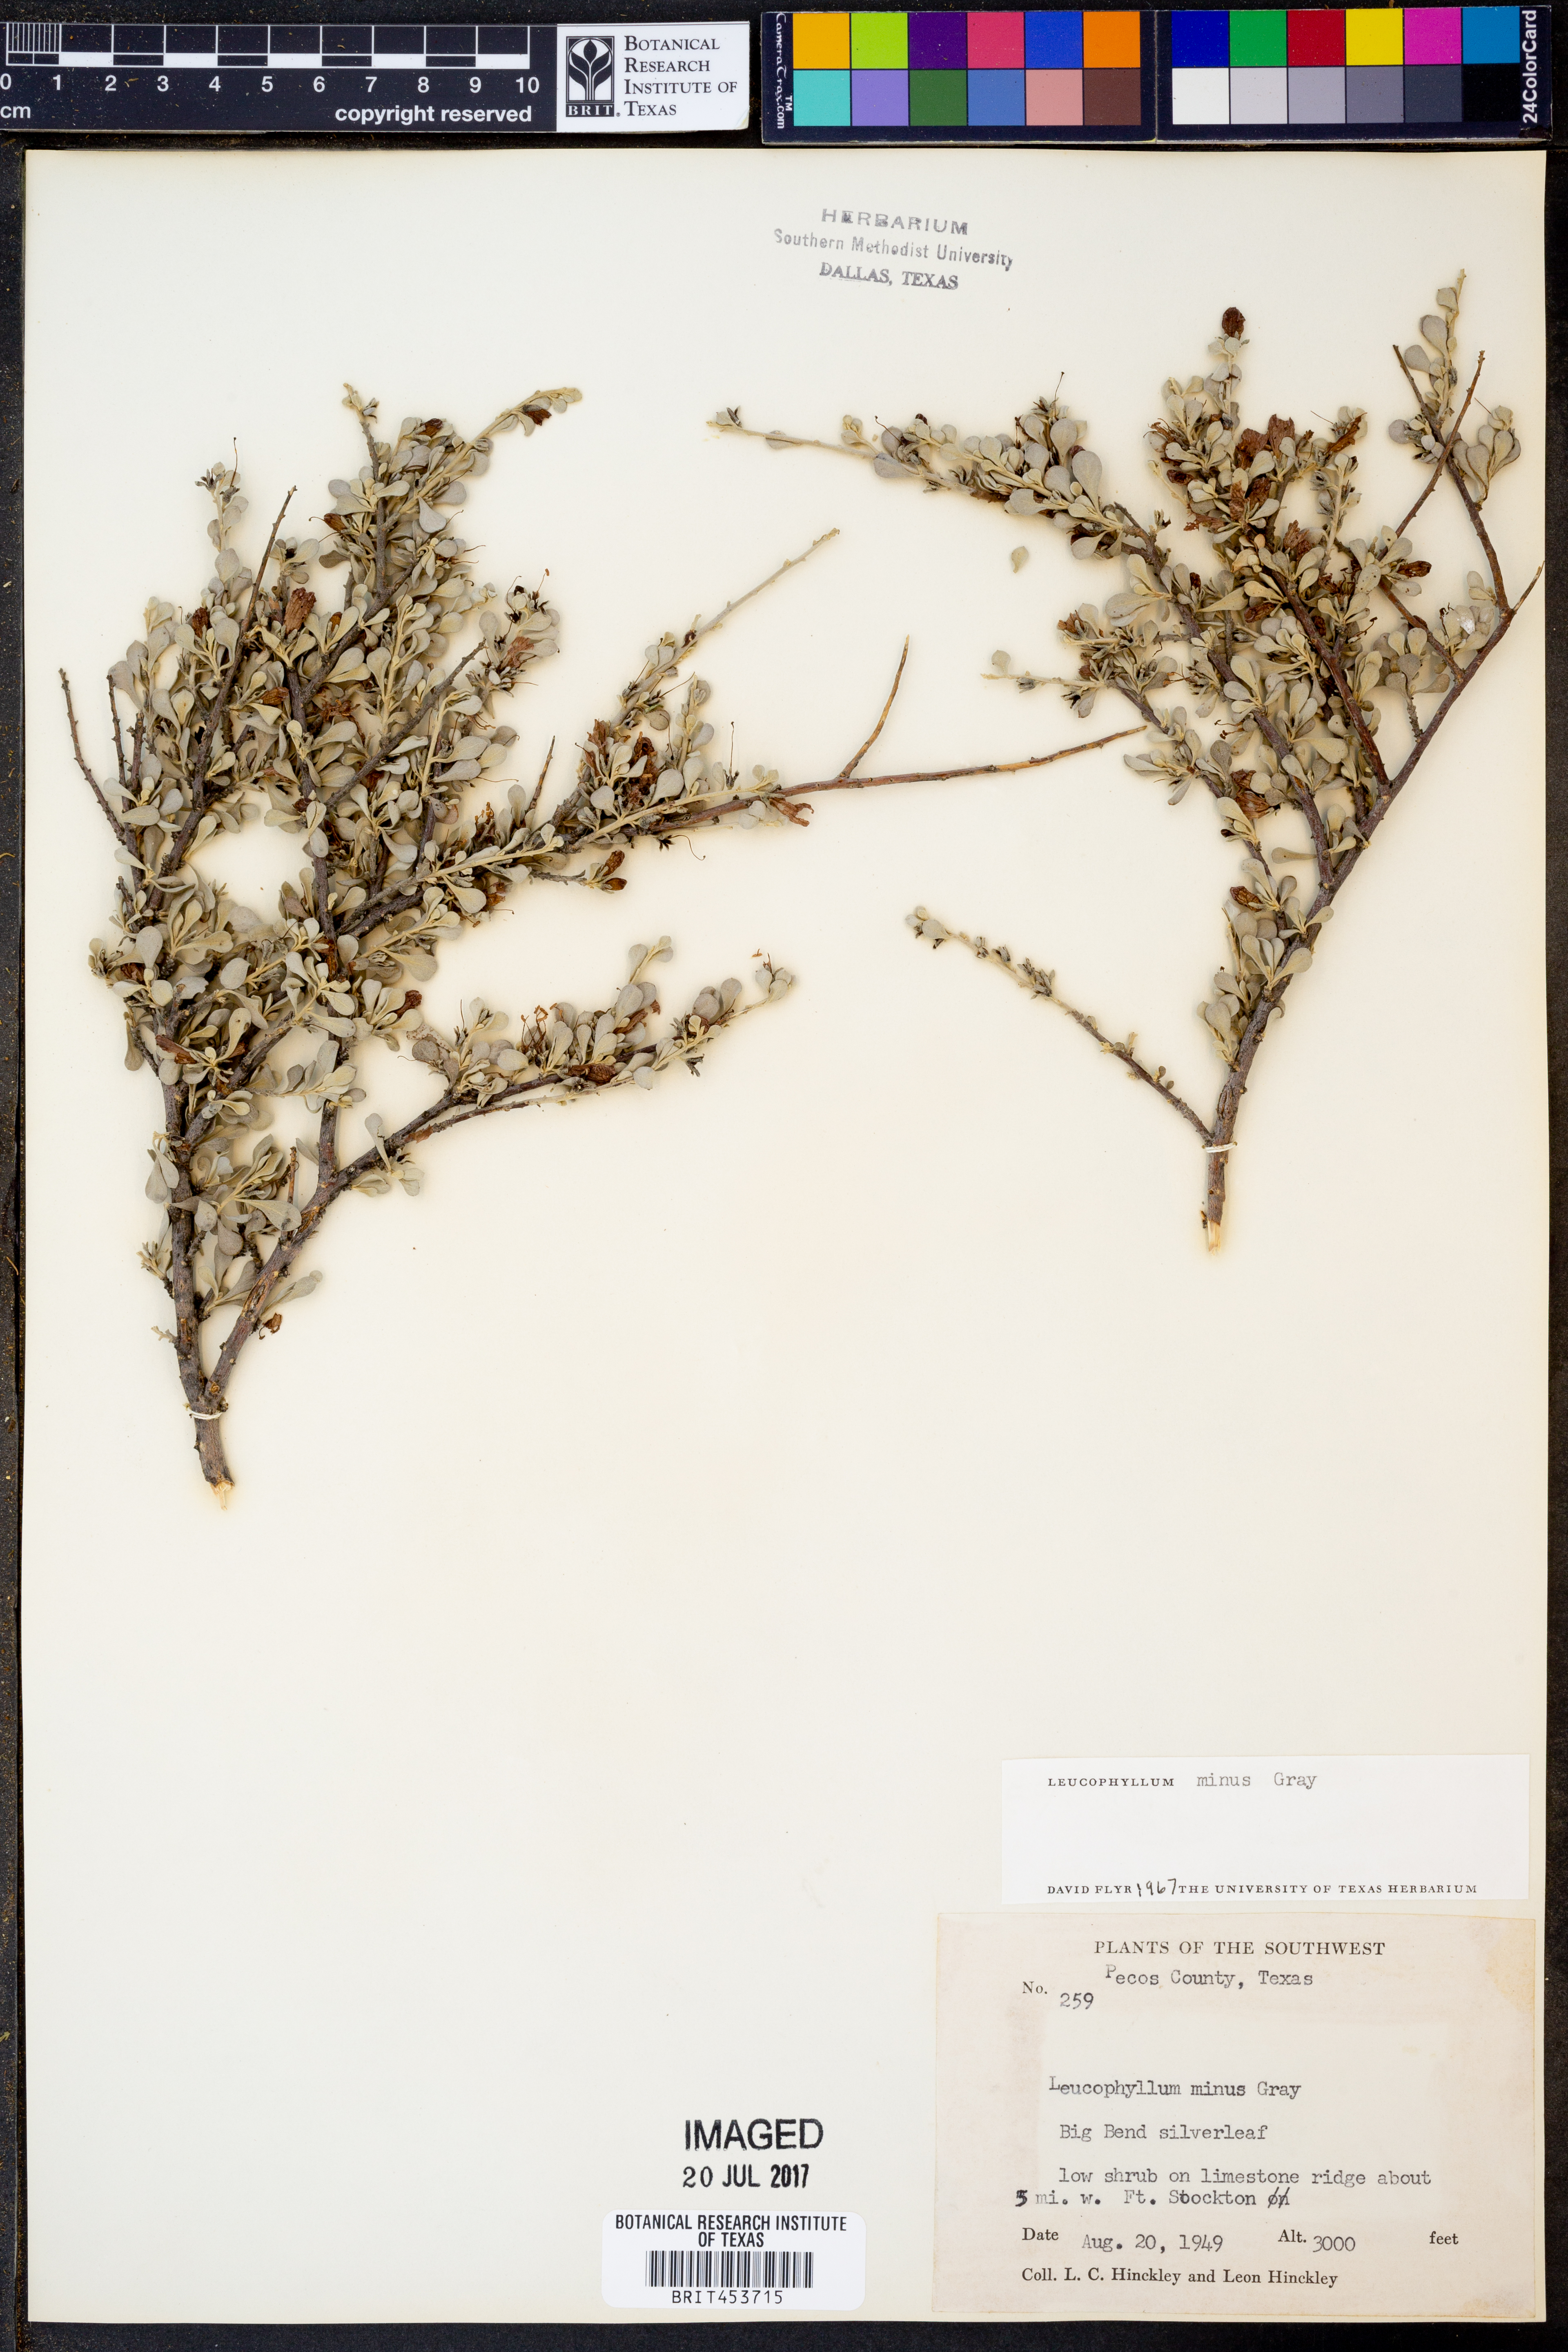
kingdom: Plantae
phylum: Tracheophyta
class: Magnoliopsida
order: Lamiales
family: Scrophulariaceae
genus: Leucophyllum
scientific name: Leucophyllum minus
